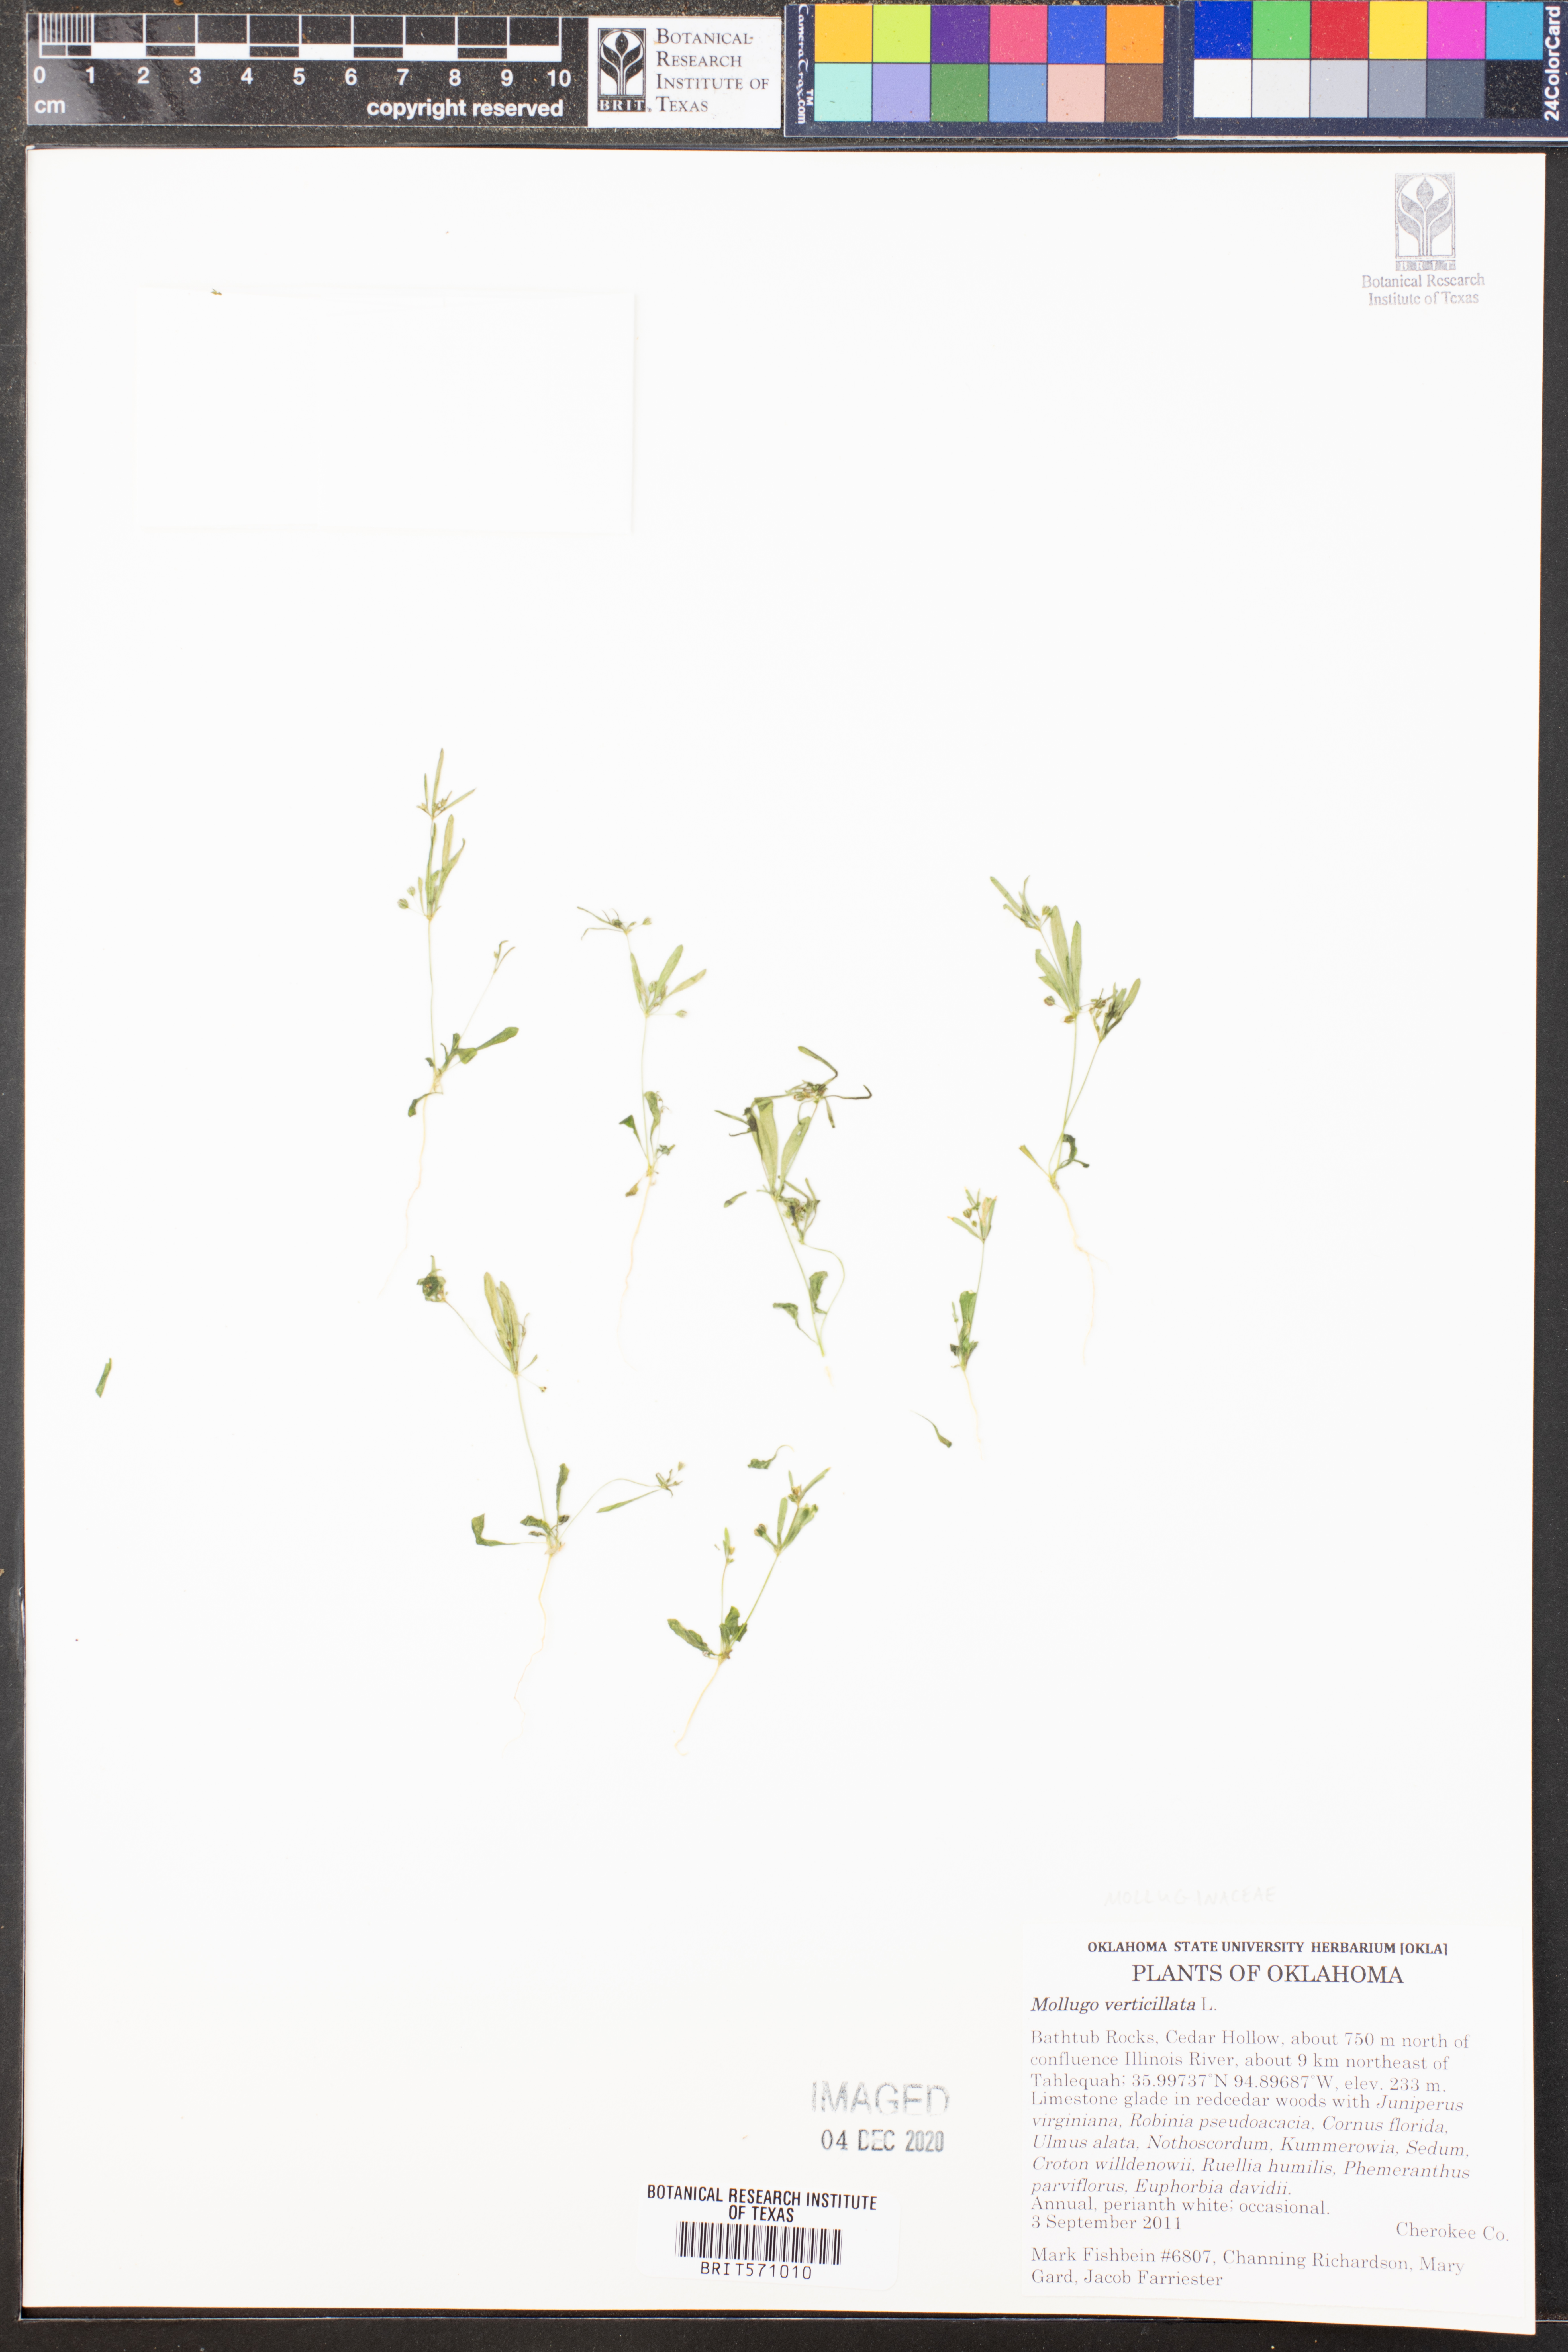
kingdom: Plantae
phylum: Tracheophyta
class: Magnoliopsida
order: Caryophyllales
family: Molluginaceae
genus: Mollugo
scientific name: Mollugo verticillata
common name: Green carpetweed
